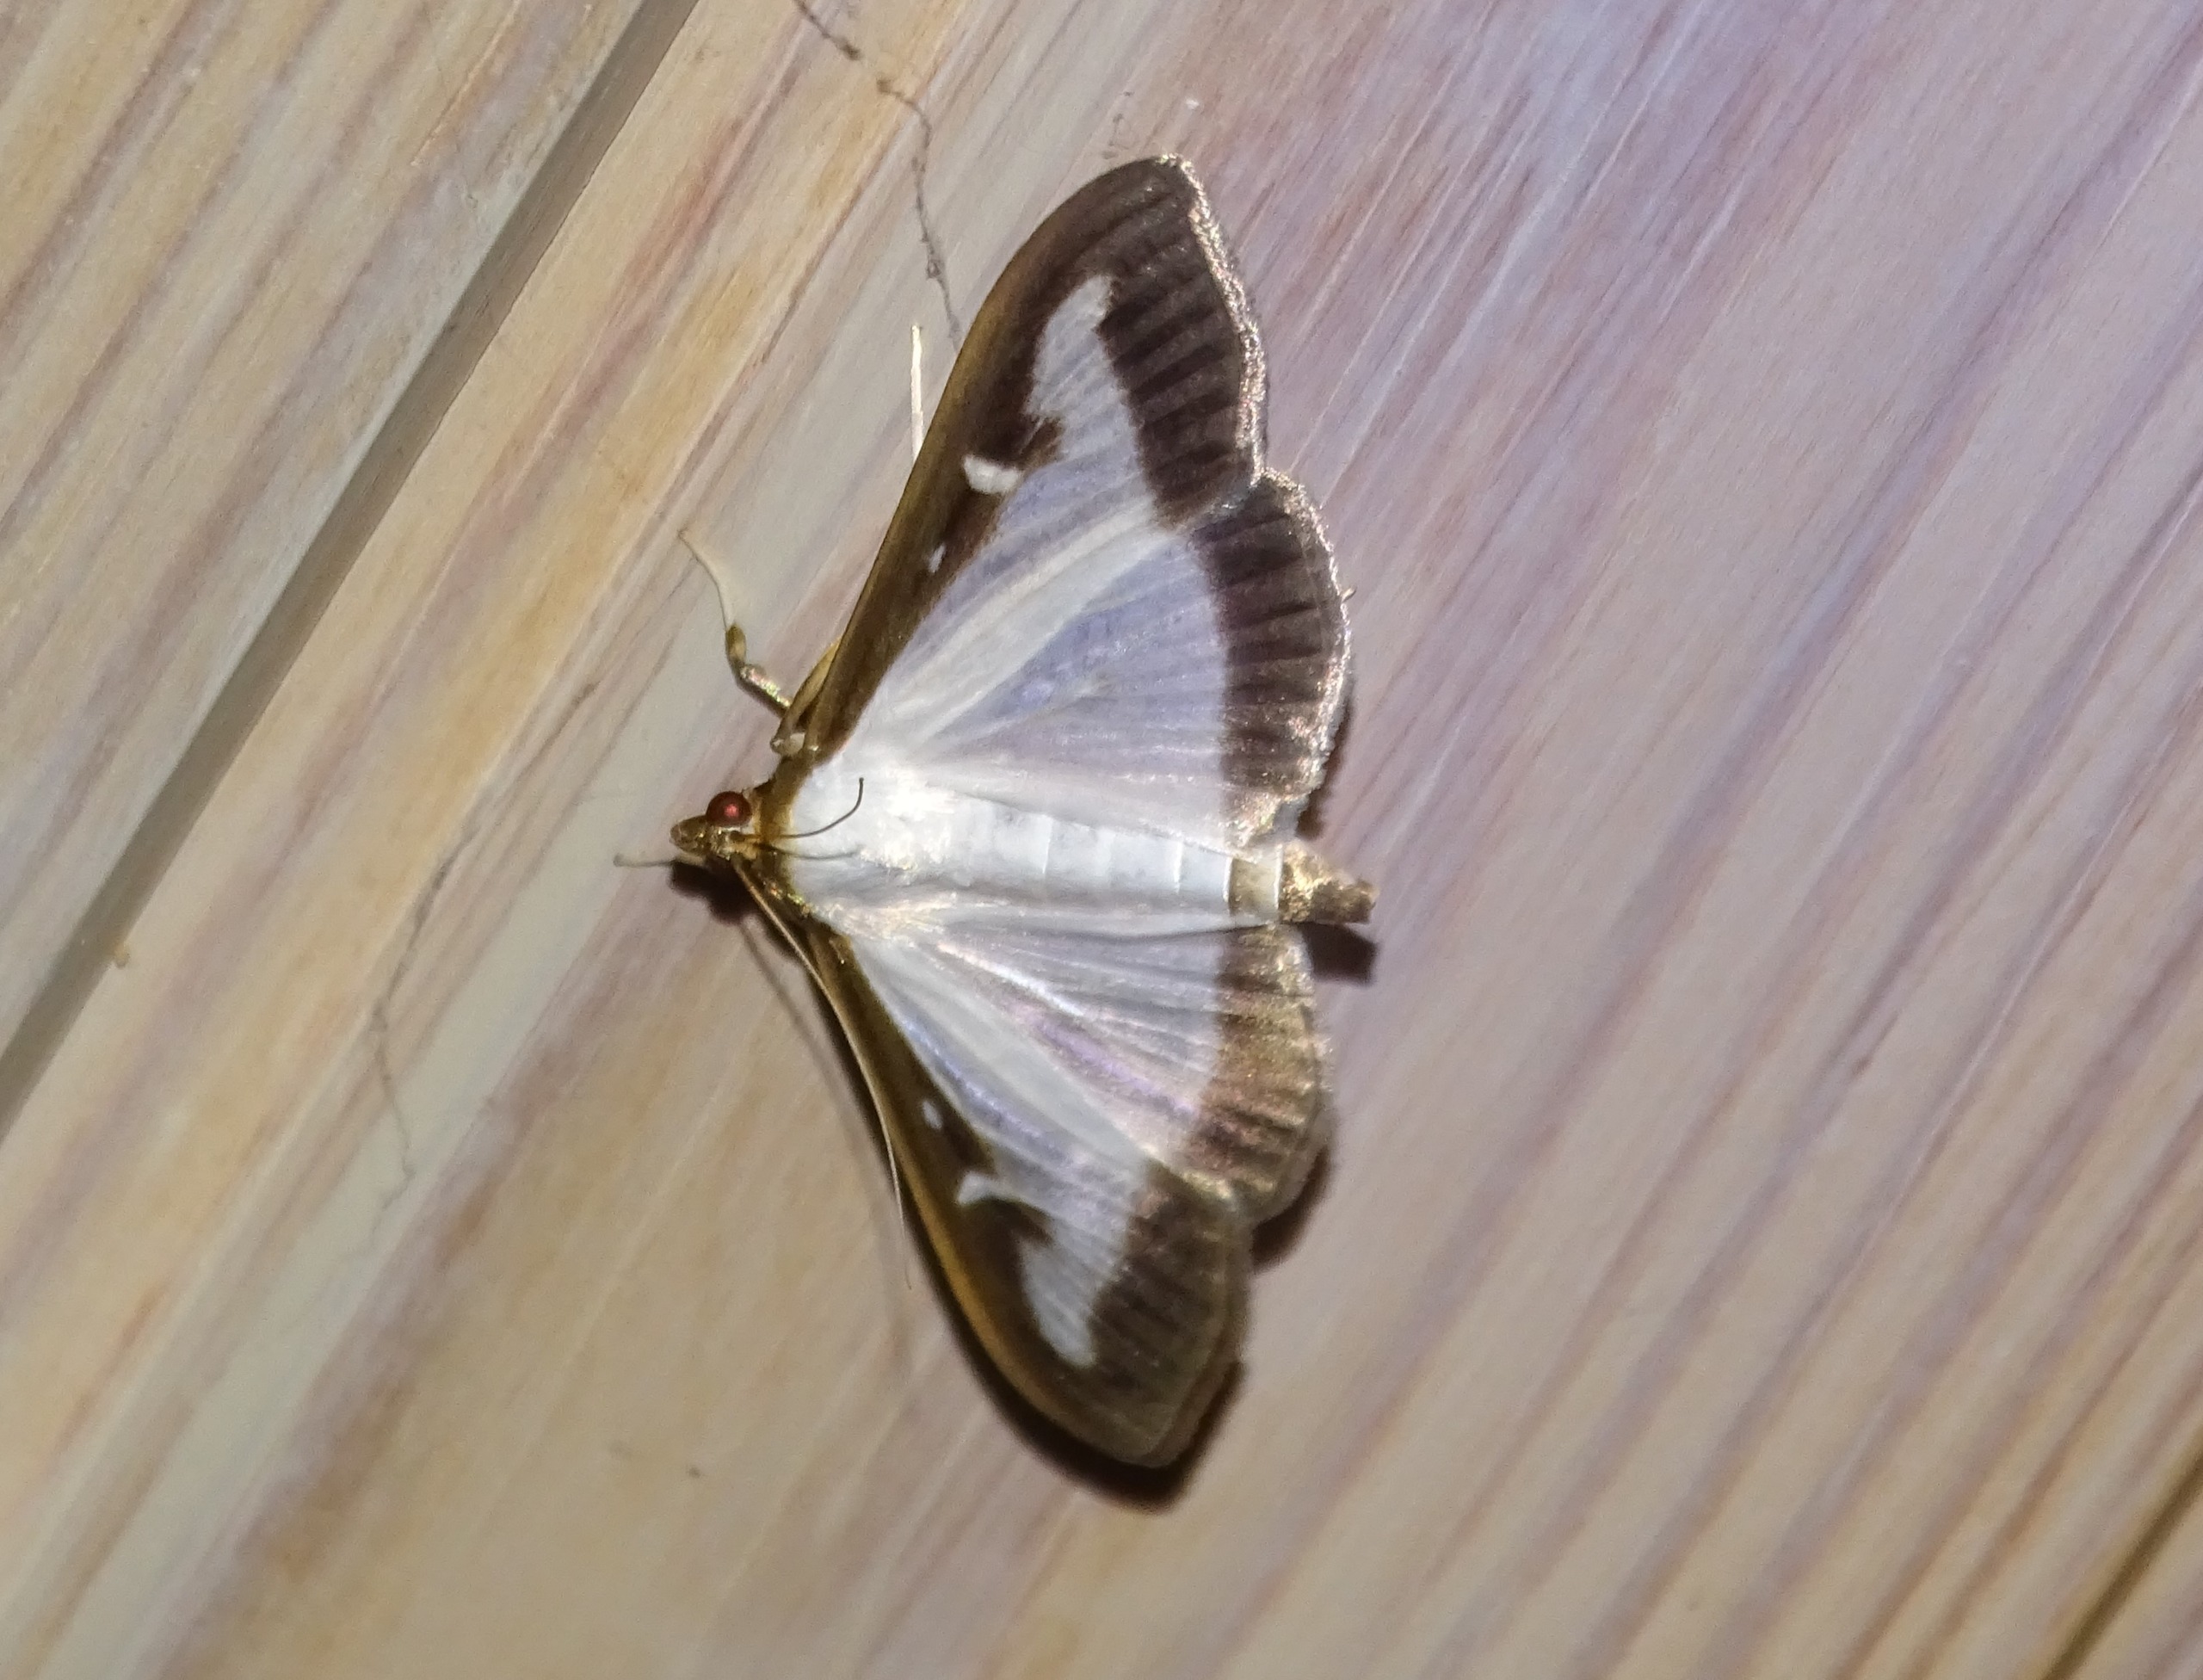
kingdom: Animalia
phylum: Arthropoda
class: Insecta
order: Lepidoptera
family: Crambidae
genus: Cydalima
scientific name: Cydalima perspectalis
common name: Buksbomhalvmøl
